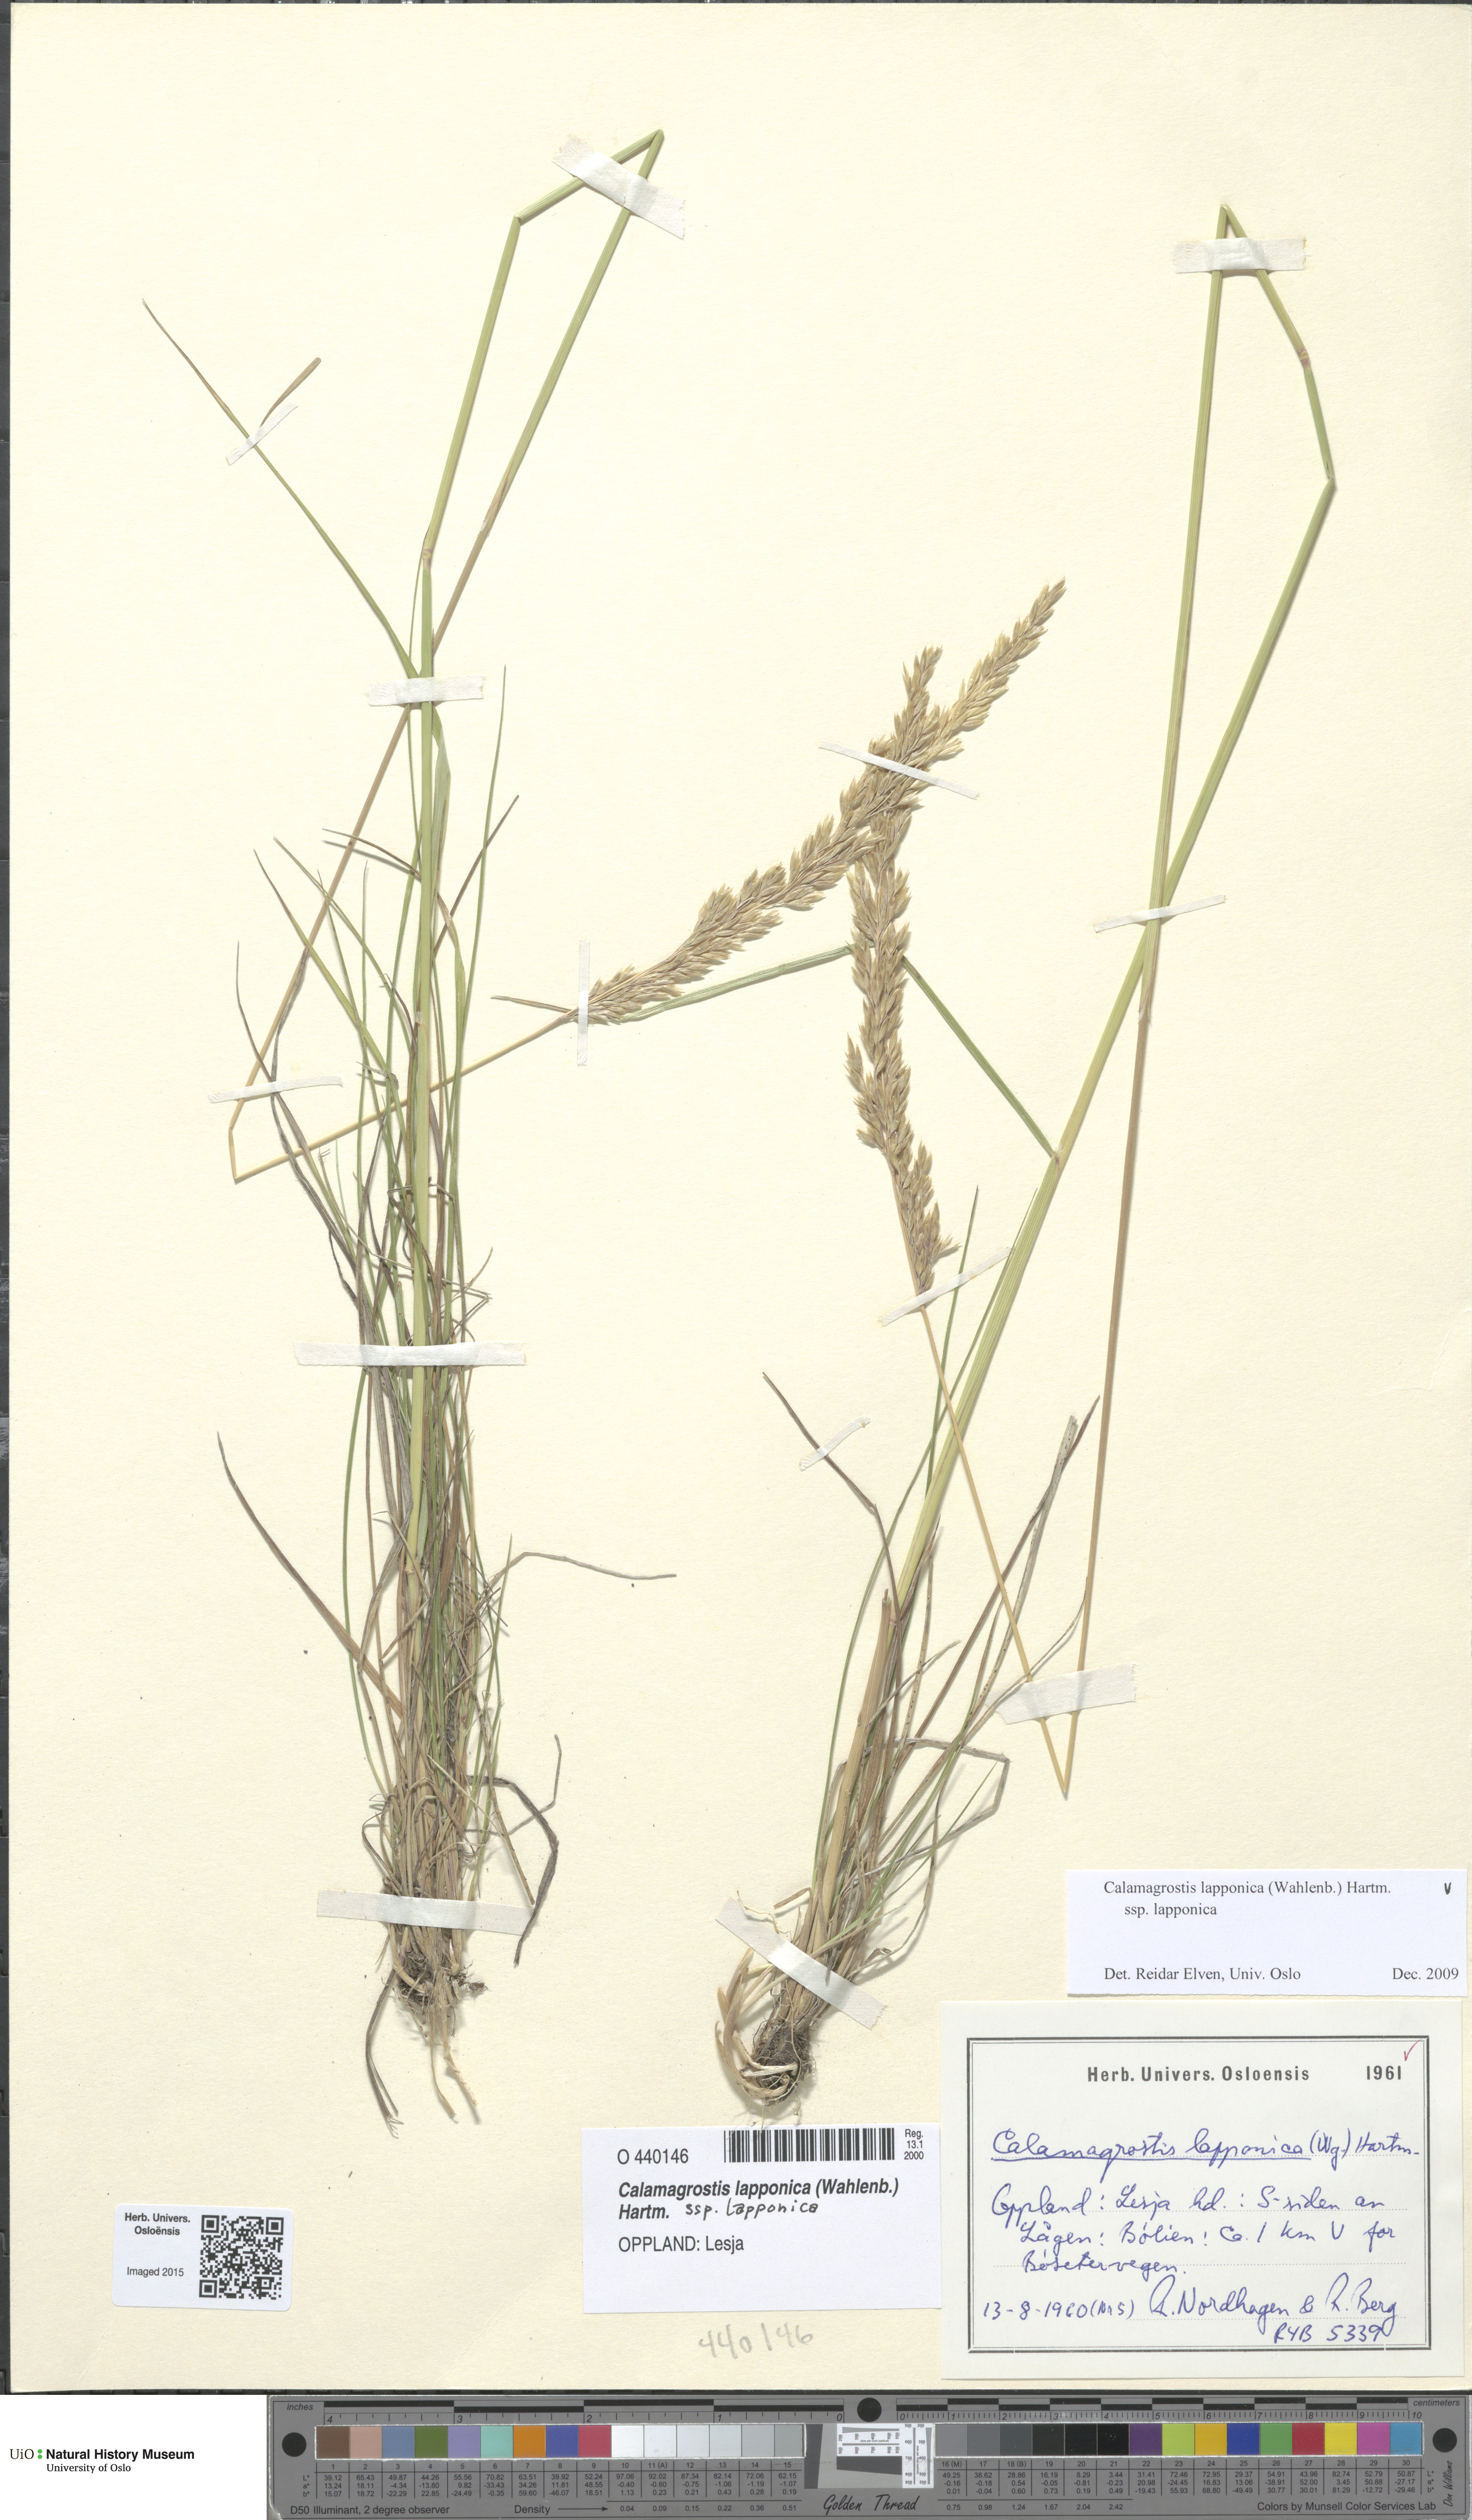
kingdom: Plantae
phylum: Tracheophyta
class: Liliopsida
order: Poales
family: Poaceae
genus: Calamagrostis
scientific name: Calamagrostis lapponica
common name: Lapland reedgrass
